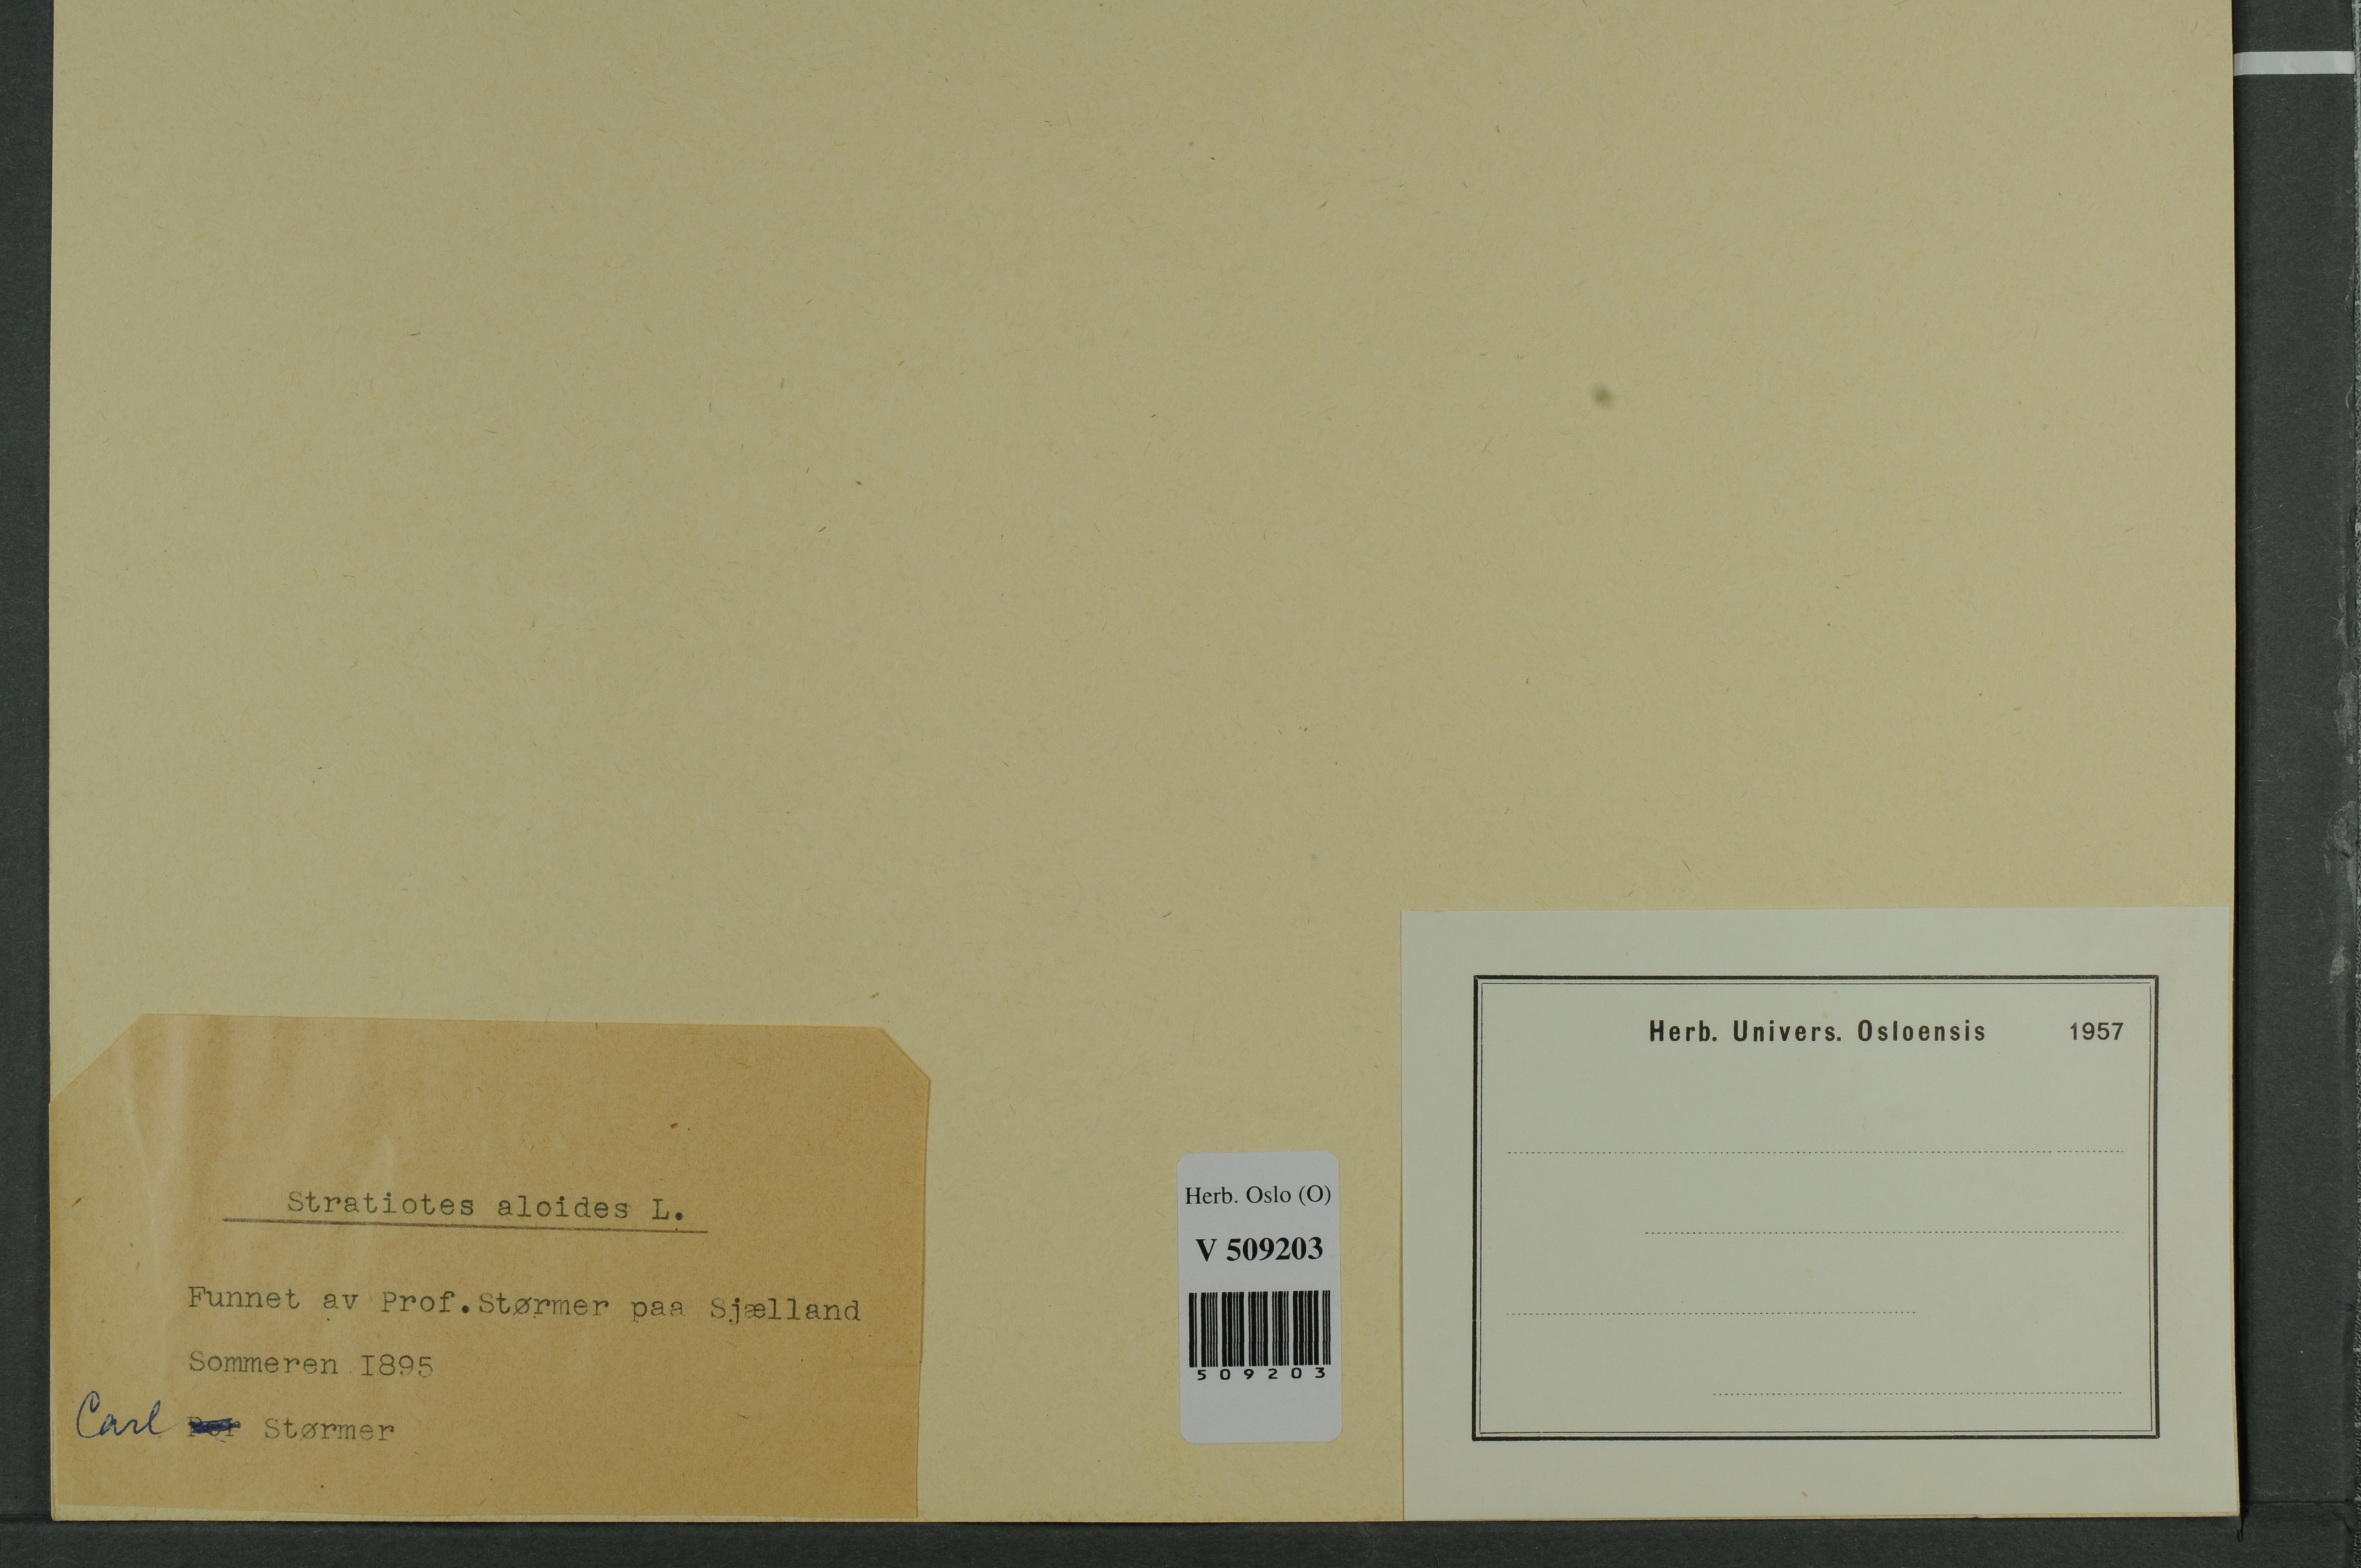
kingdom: Plantae
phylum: Tracheophyta
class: Liliopsida
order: Alismatales
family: Hydrocharitaceae
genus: Stratiotes
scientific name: Stratiotes aloides
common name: Water-soldier
